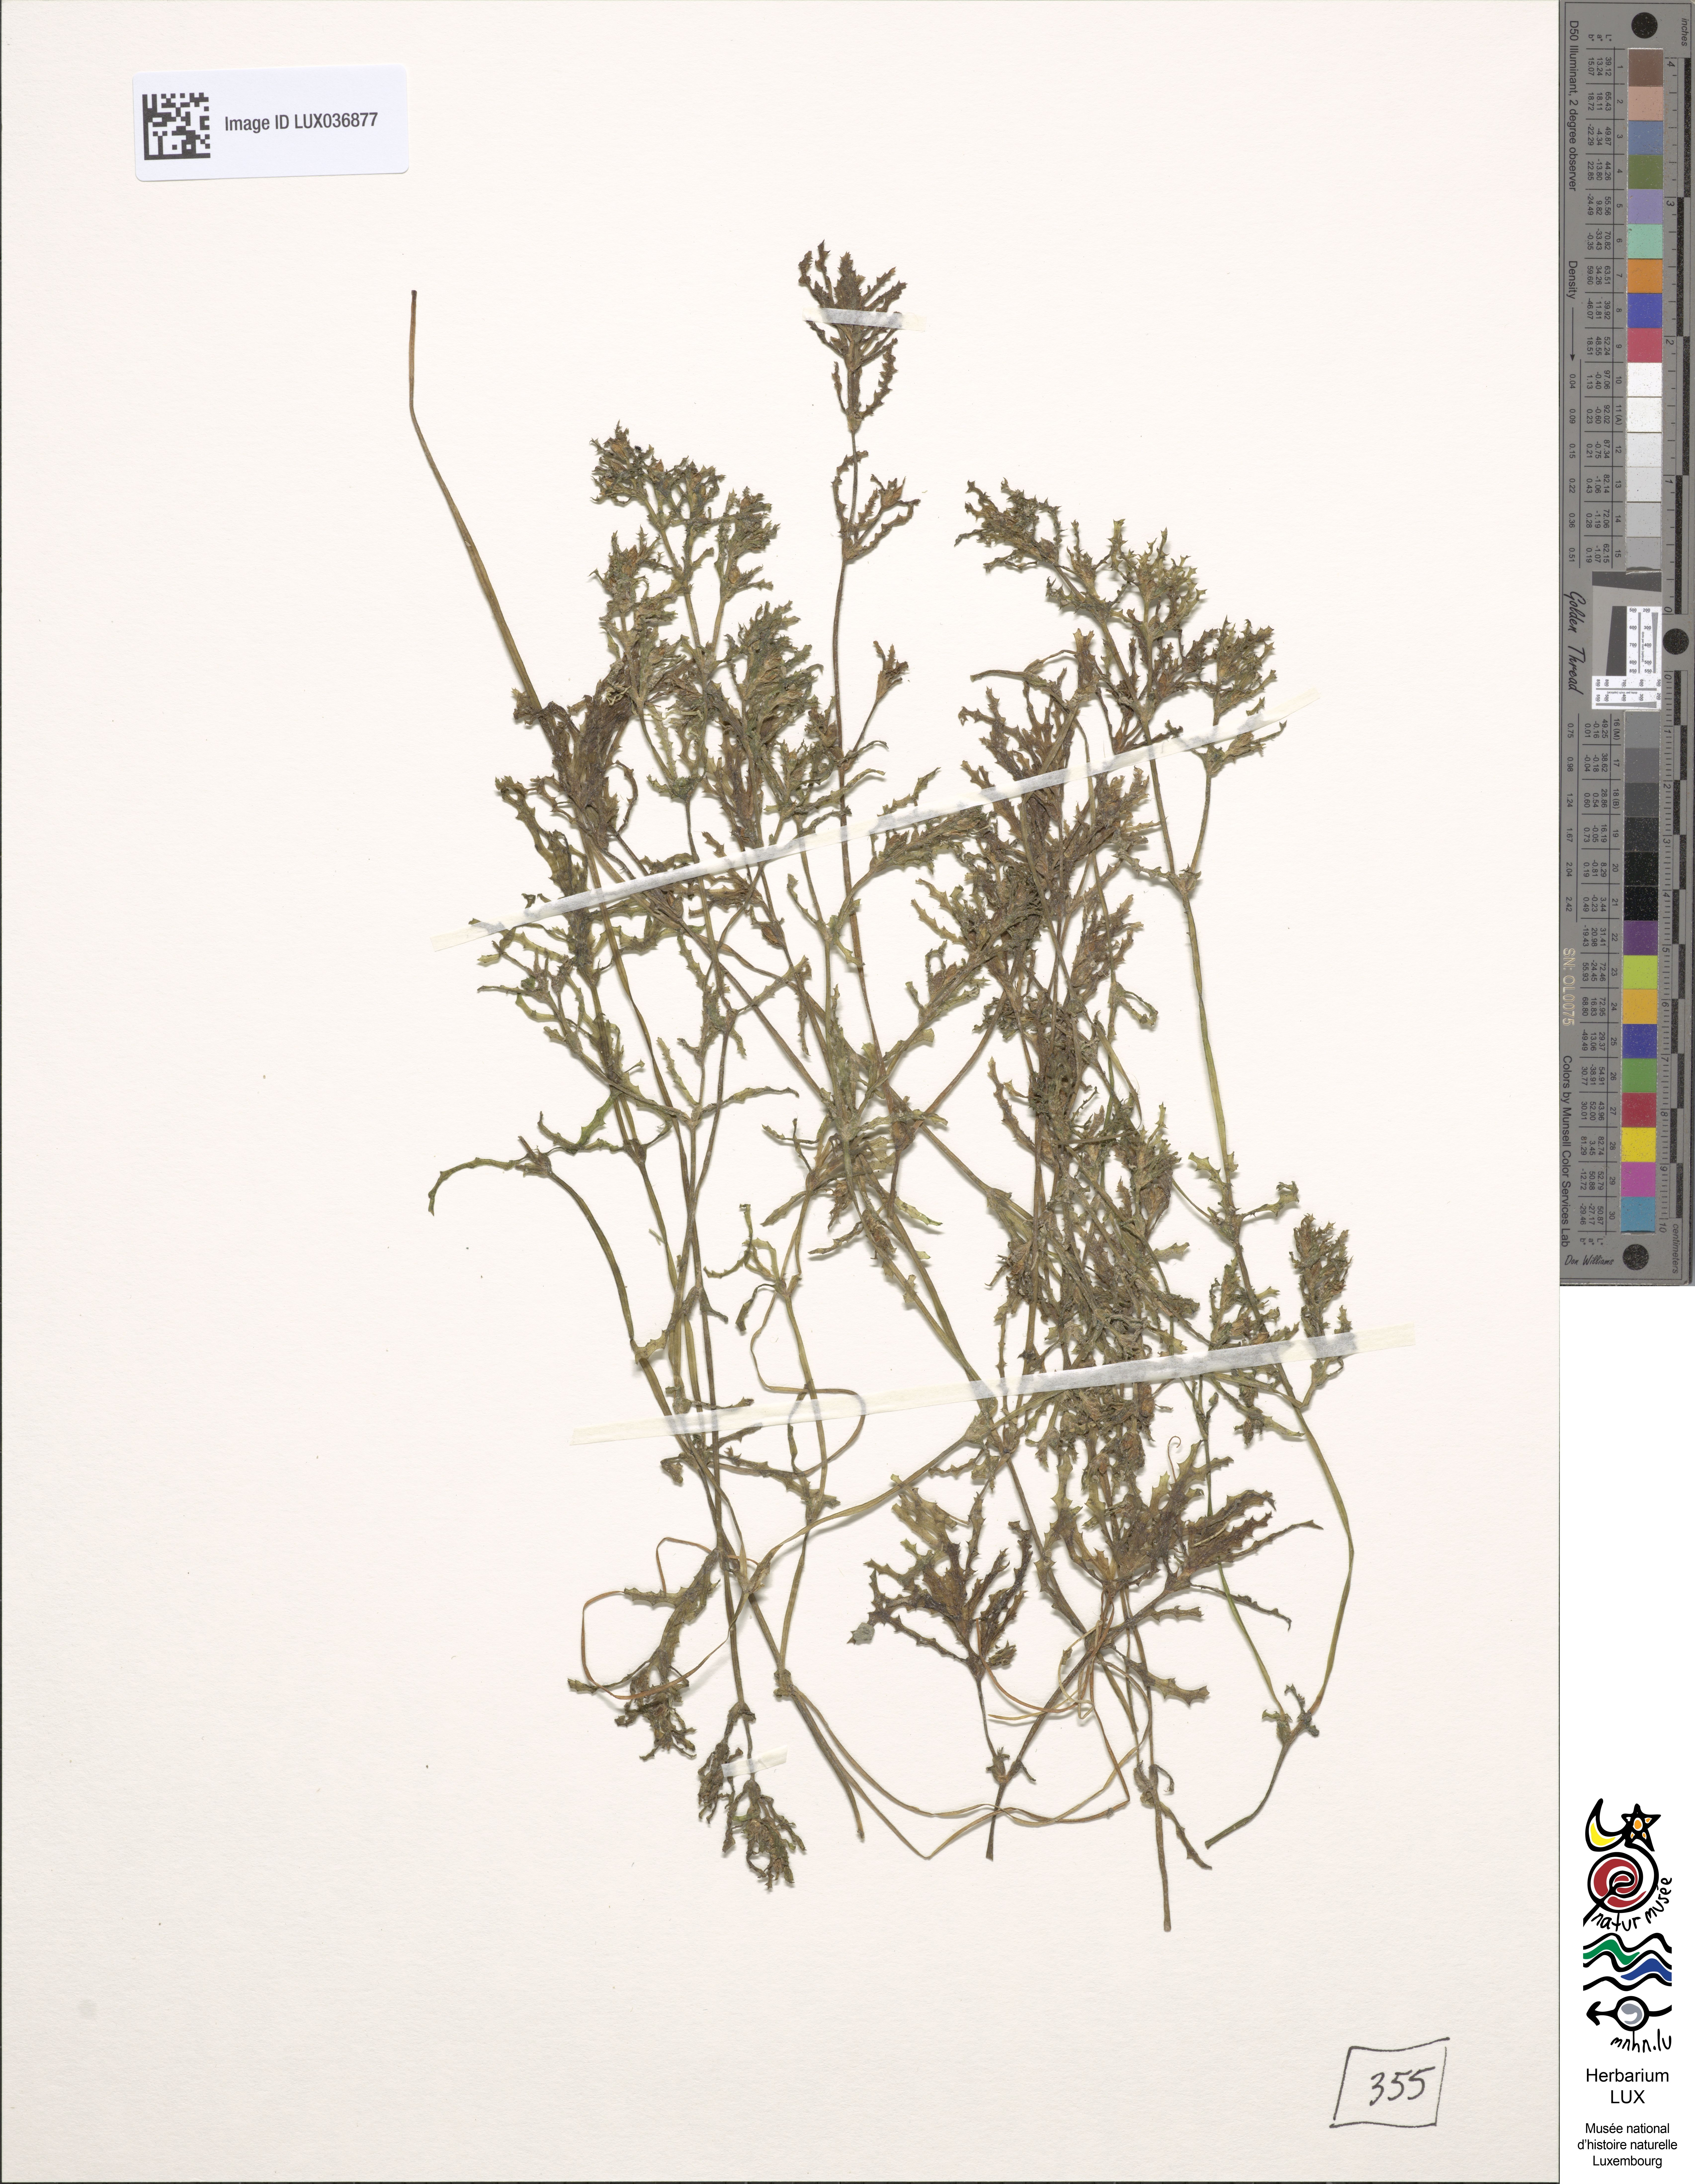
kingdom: Plantae
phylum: Tracheophyta
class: Liliopsida
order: Alismatales
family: Hydrocharitaceae
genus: Najas
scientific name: Najas marina
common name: Holly-leaved naiad
